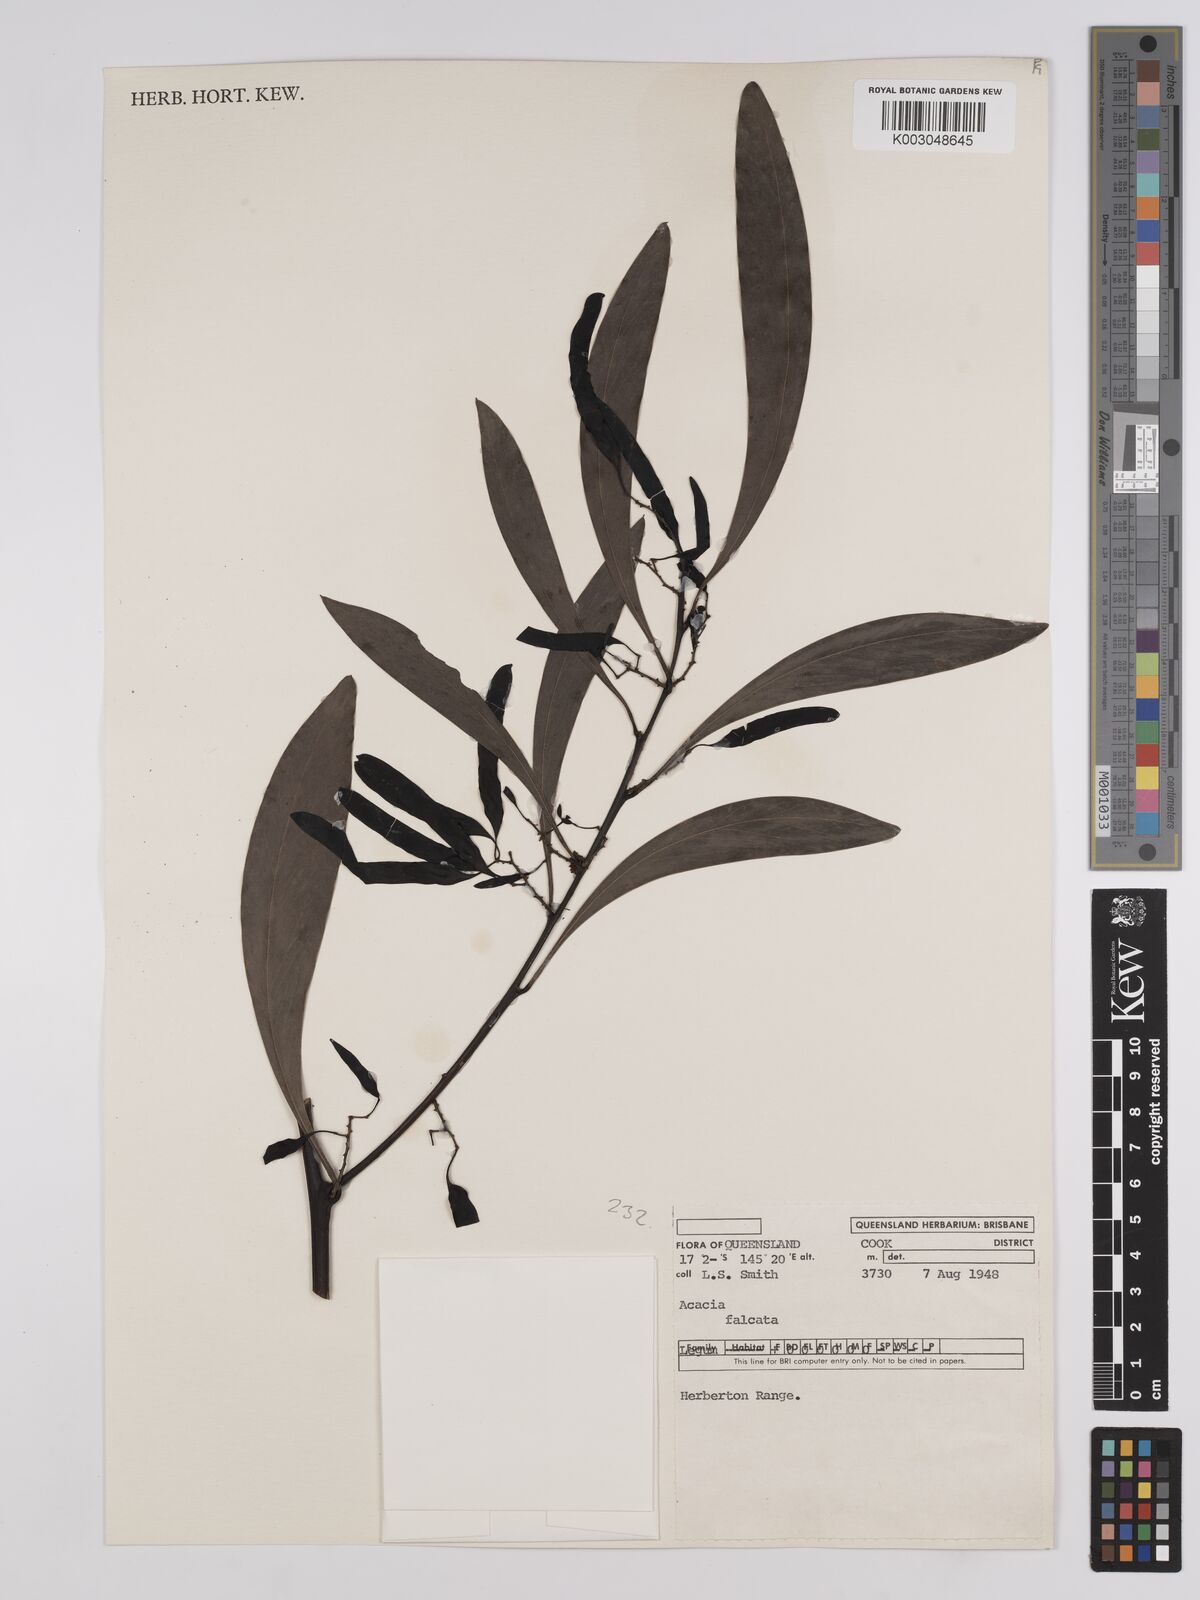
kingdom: Plantae
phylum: Tracheophyta
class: Magnoliopsida
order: Fabales
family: Fabaceae
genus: Acacia
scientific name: Acacia falcata
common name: Burra acacia
